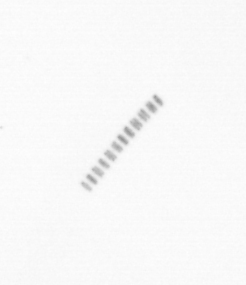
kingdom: Chromista
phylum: Ochrophyta
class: Bacillariophyceae
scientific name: Bacillariophyceae
